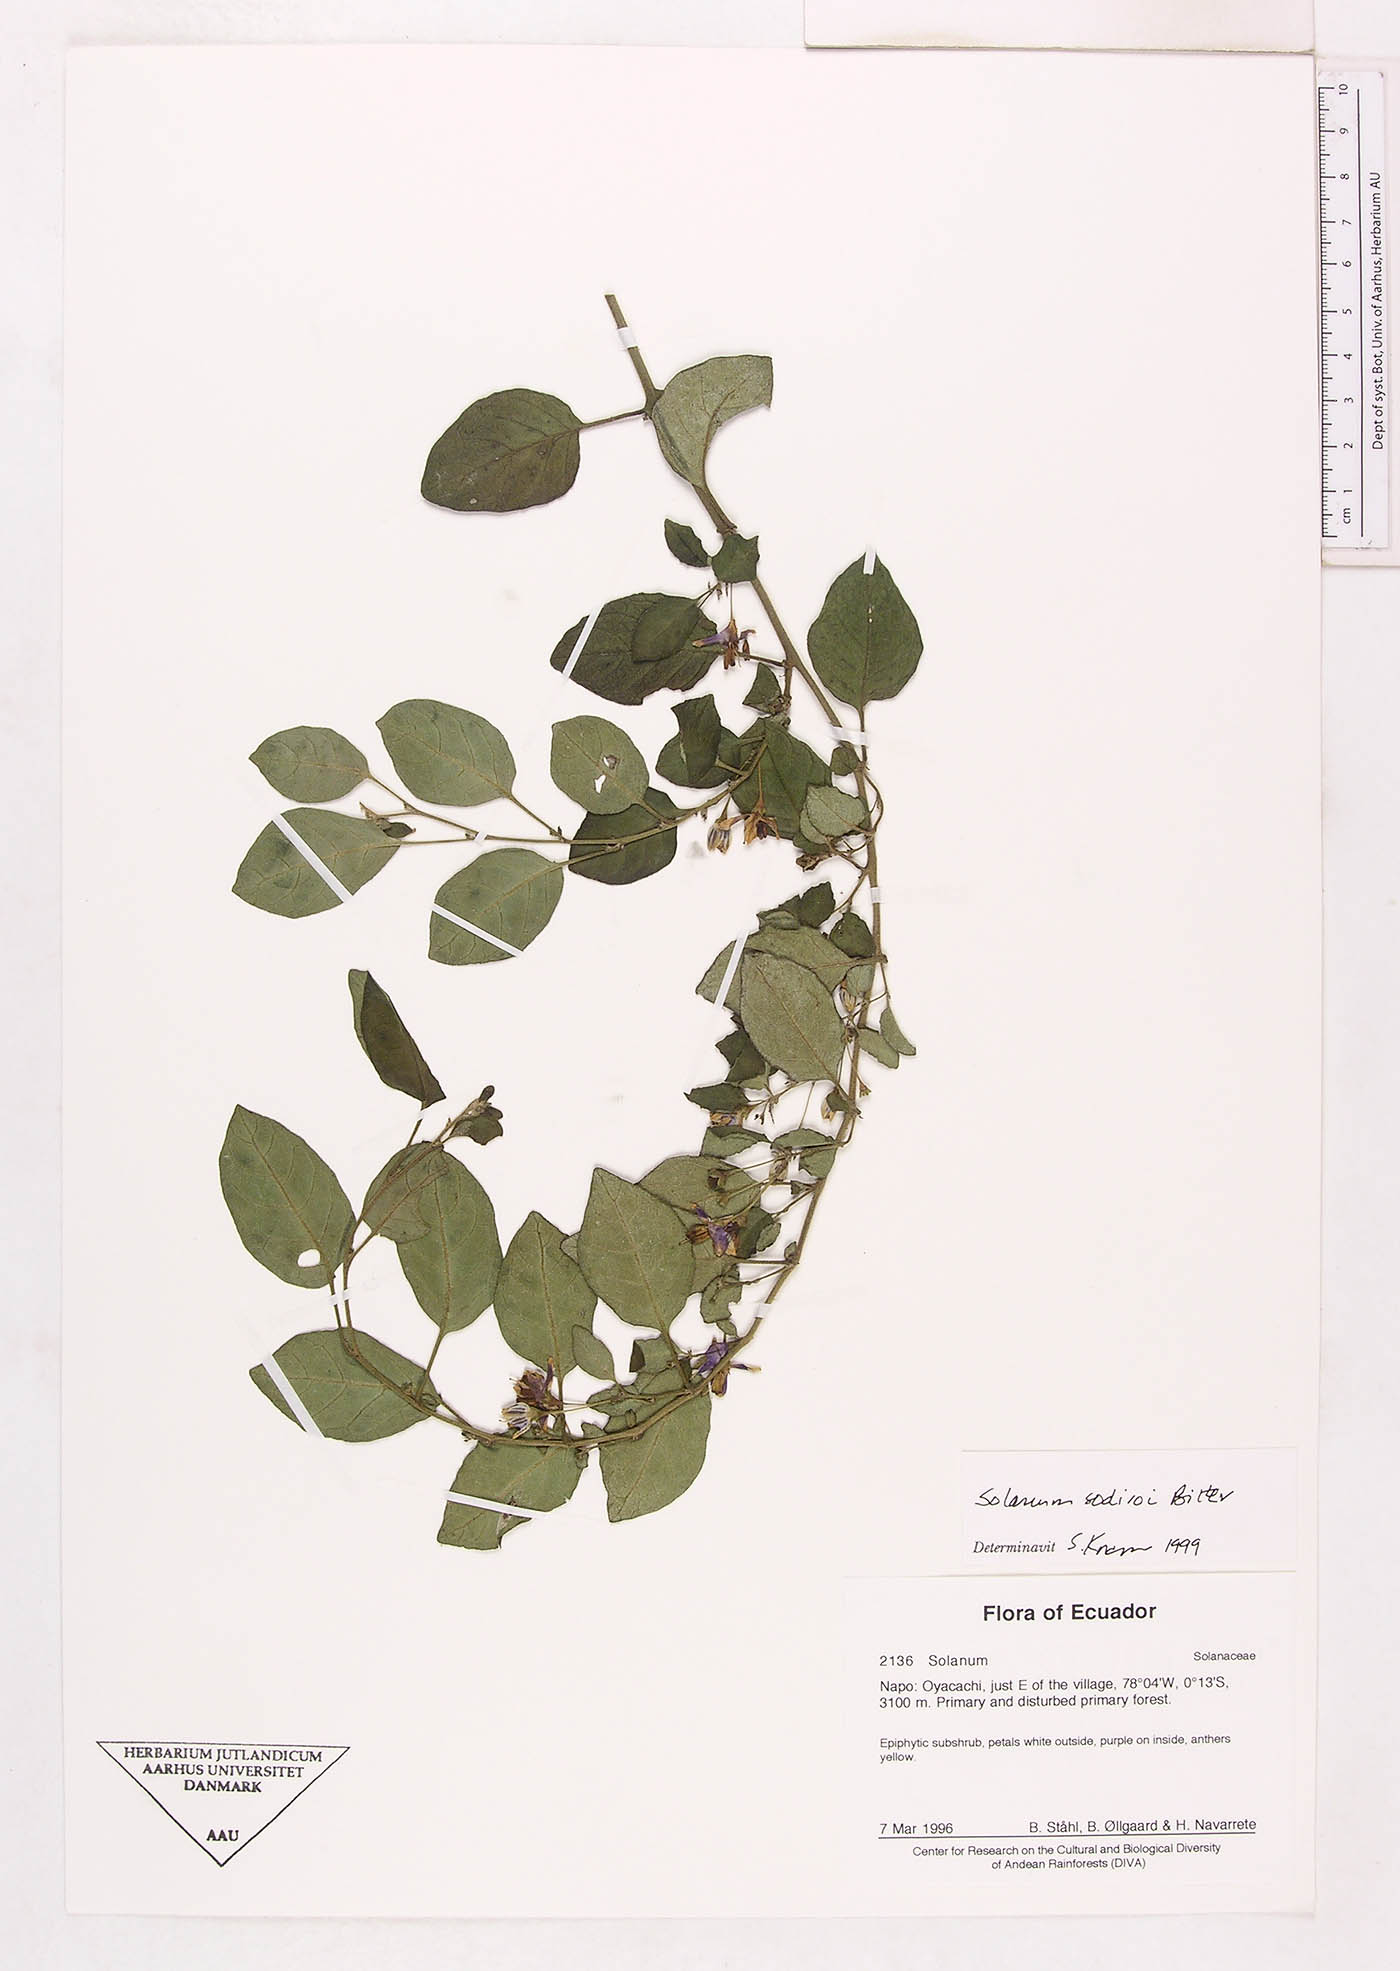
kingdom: Plantae
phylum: Tracheophyta
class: Magnoliopsida
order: Solanales
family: Solanaceae
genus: Solanum
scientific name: Solanum sodiroi
